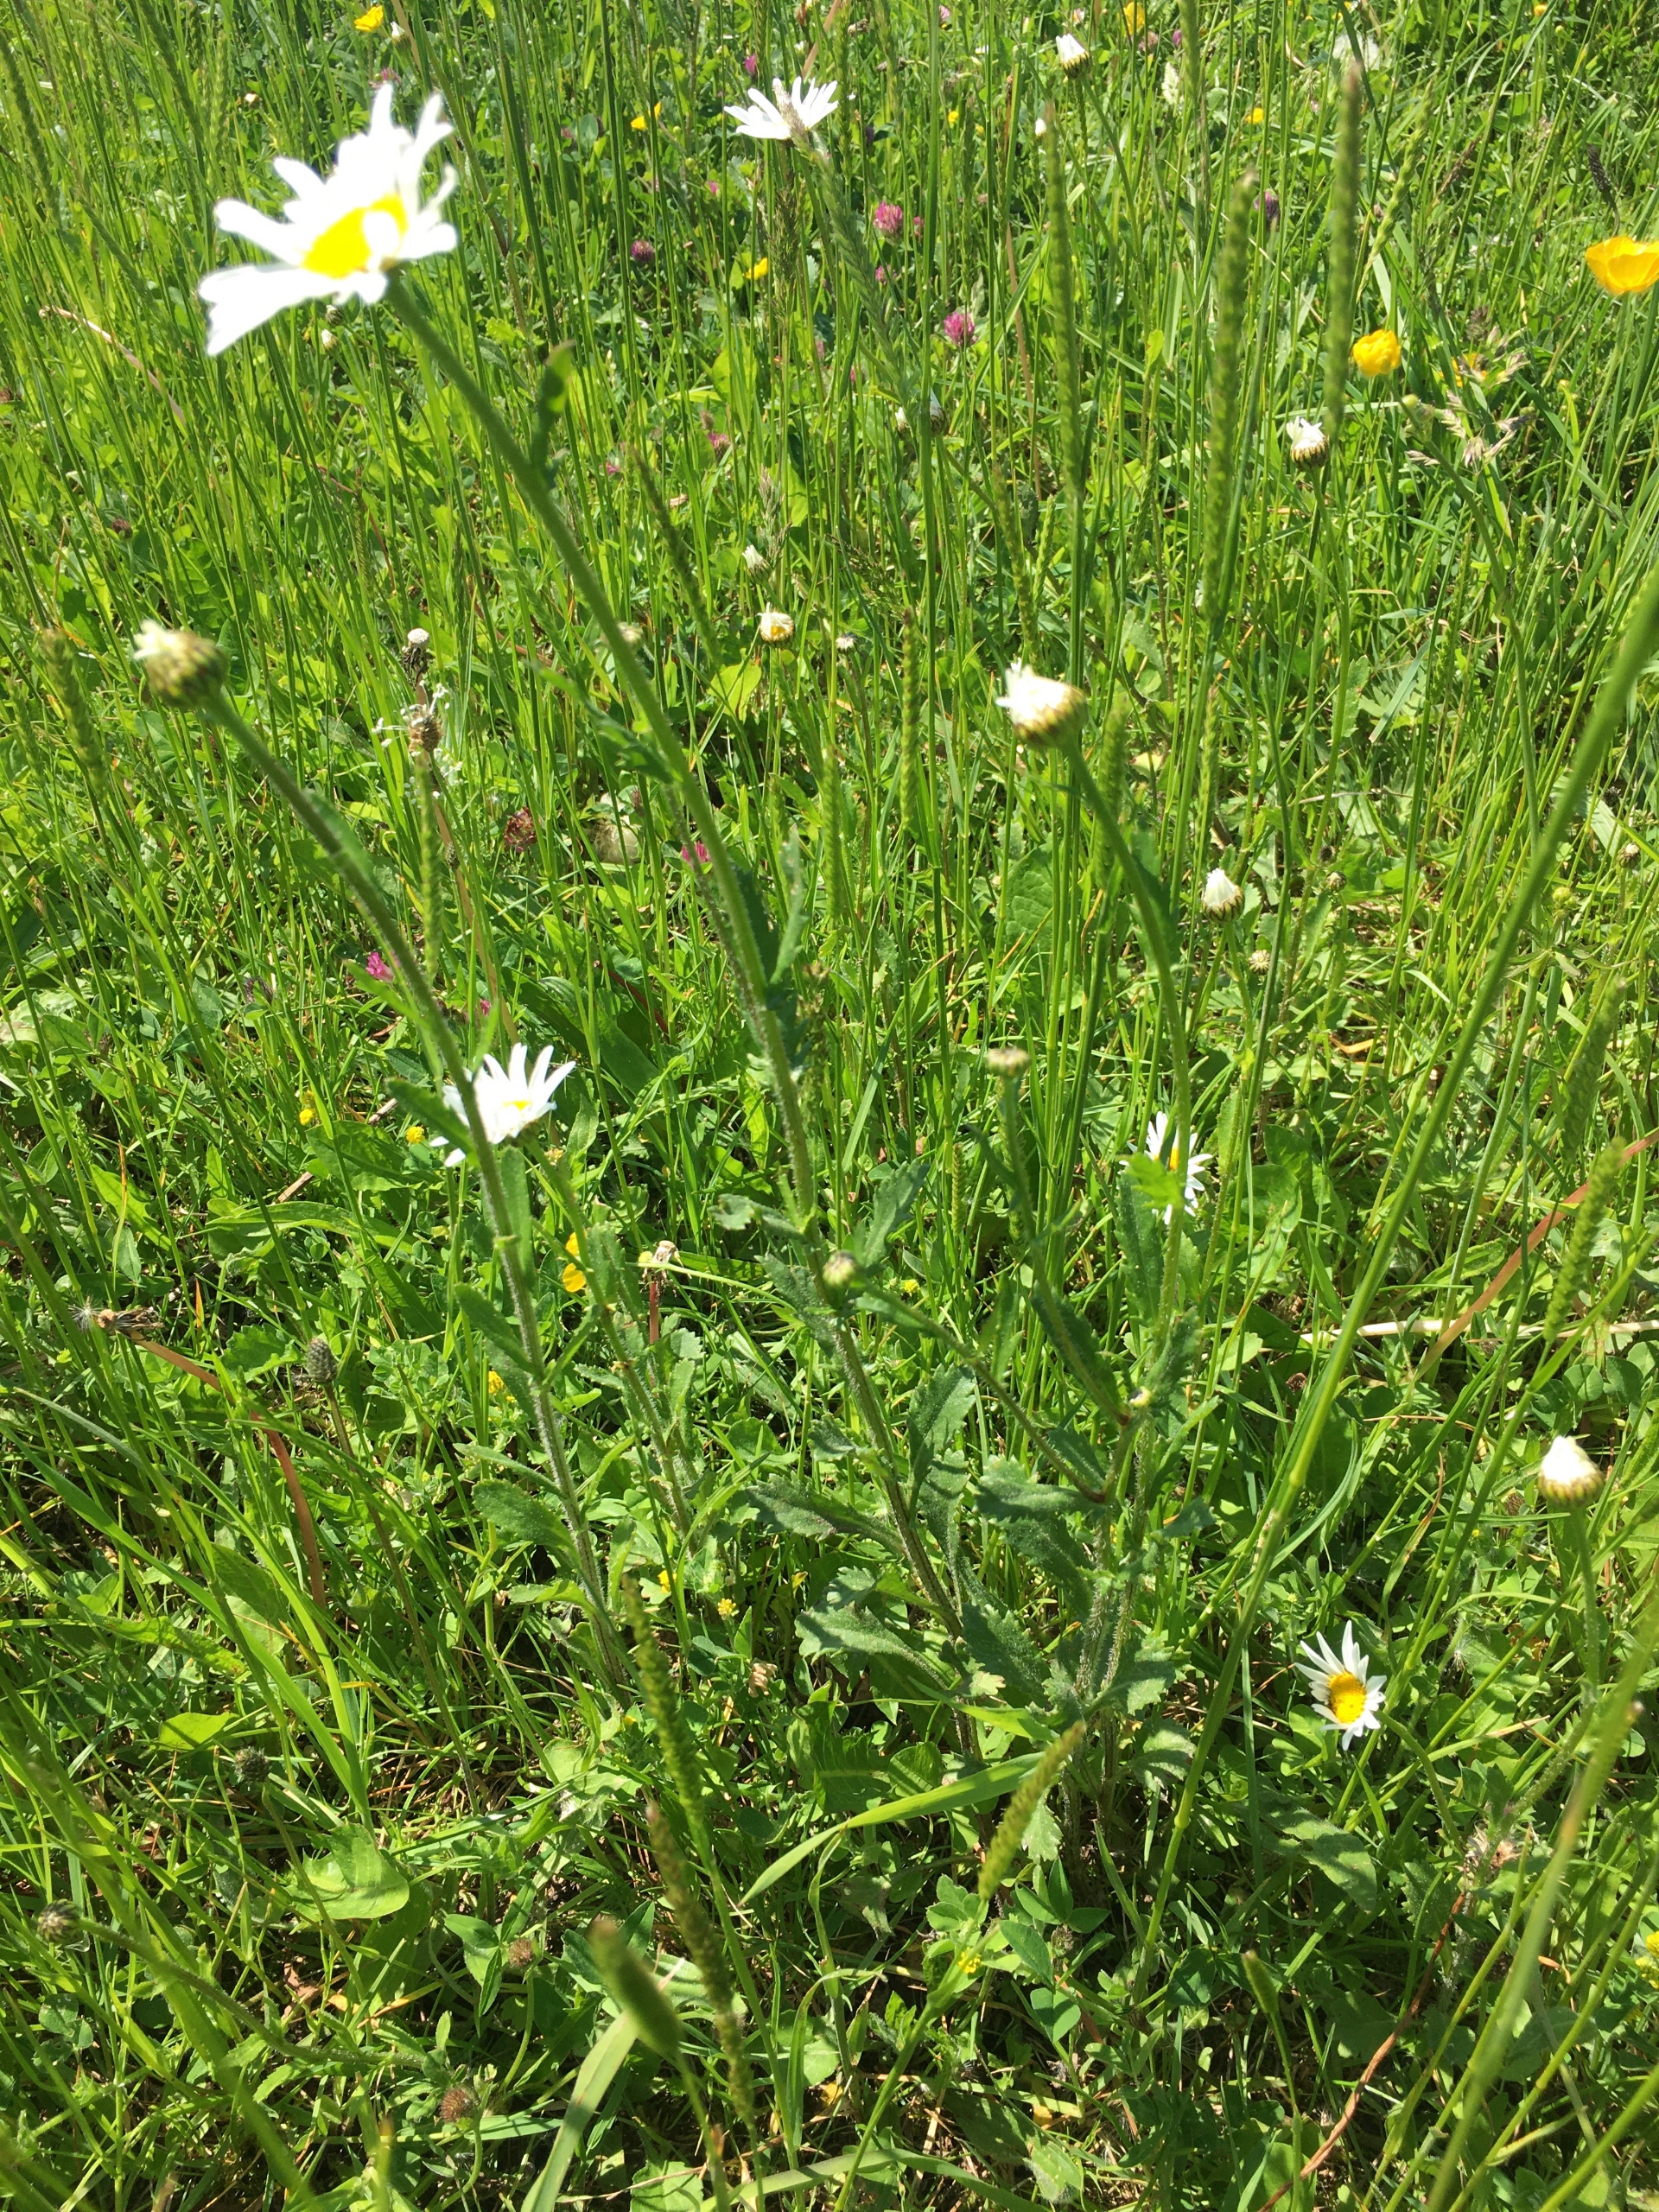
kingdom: Plantae
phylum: Tracheophyta
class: Magnoliopsida
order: Asterales
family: Asteraceae
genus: Leucanthemum
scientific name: Leucanthemum vulgare
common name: Hvid okseøje
